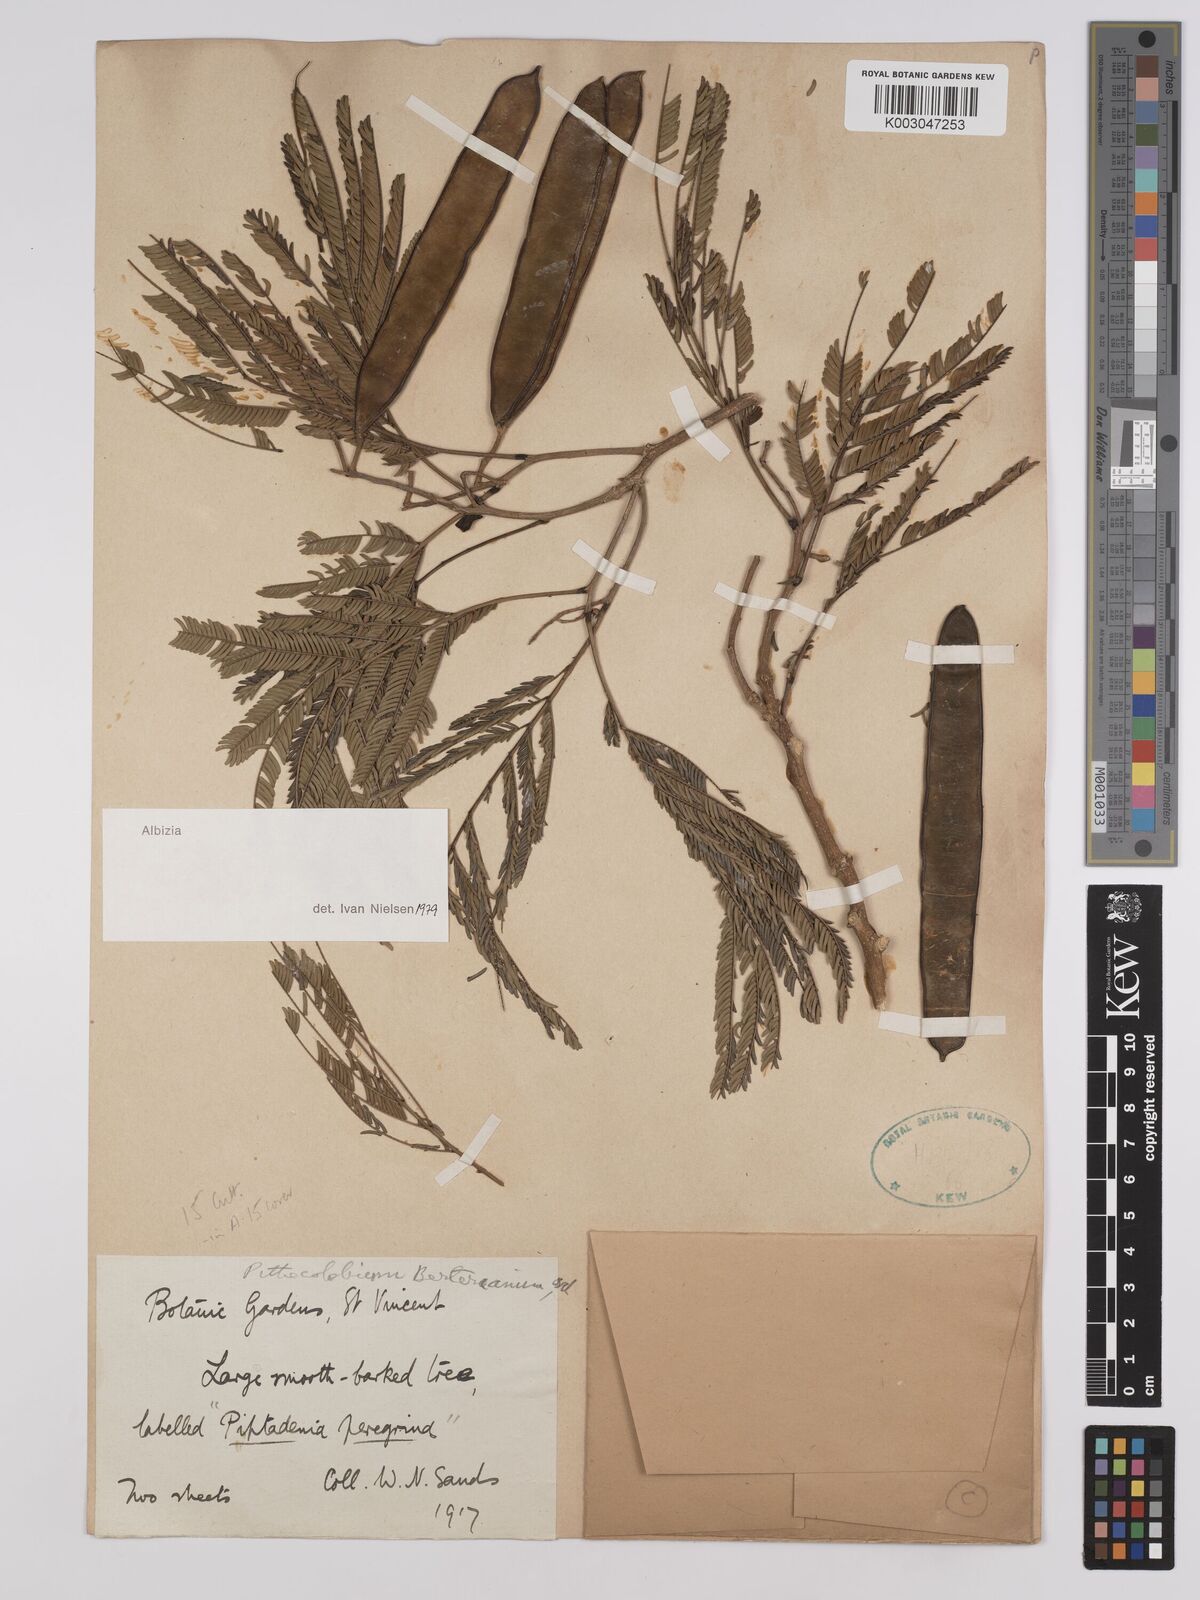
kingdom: Plantae
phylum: Tracheophyta
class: Magnoliopsida
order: Fabales
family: Fabaceae
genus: Albizia
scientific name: Albizia niopoides
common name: Silk tree
